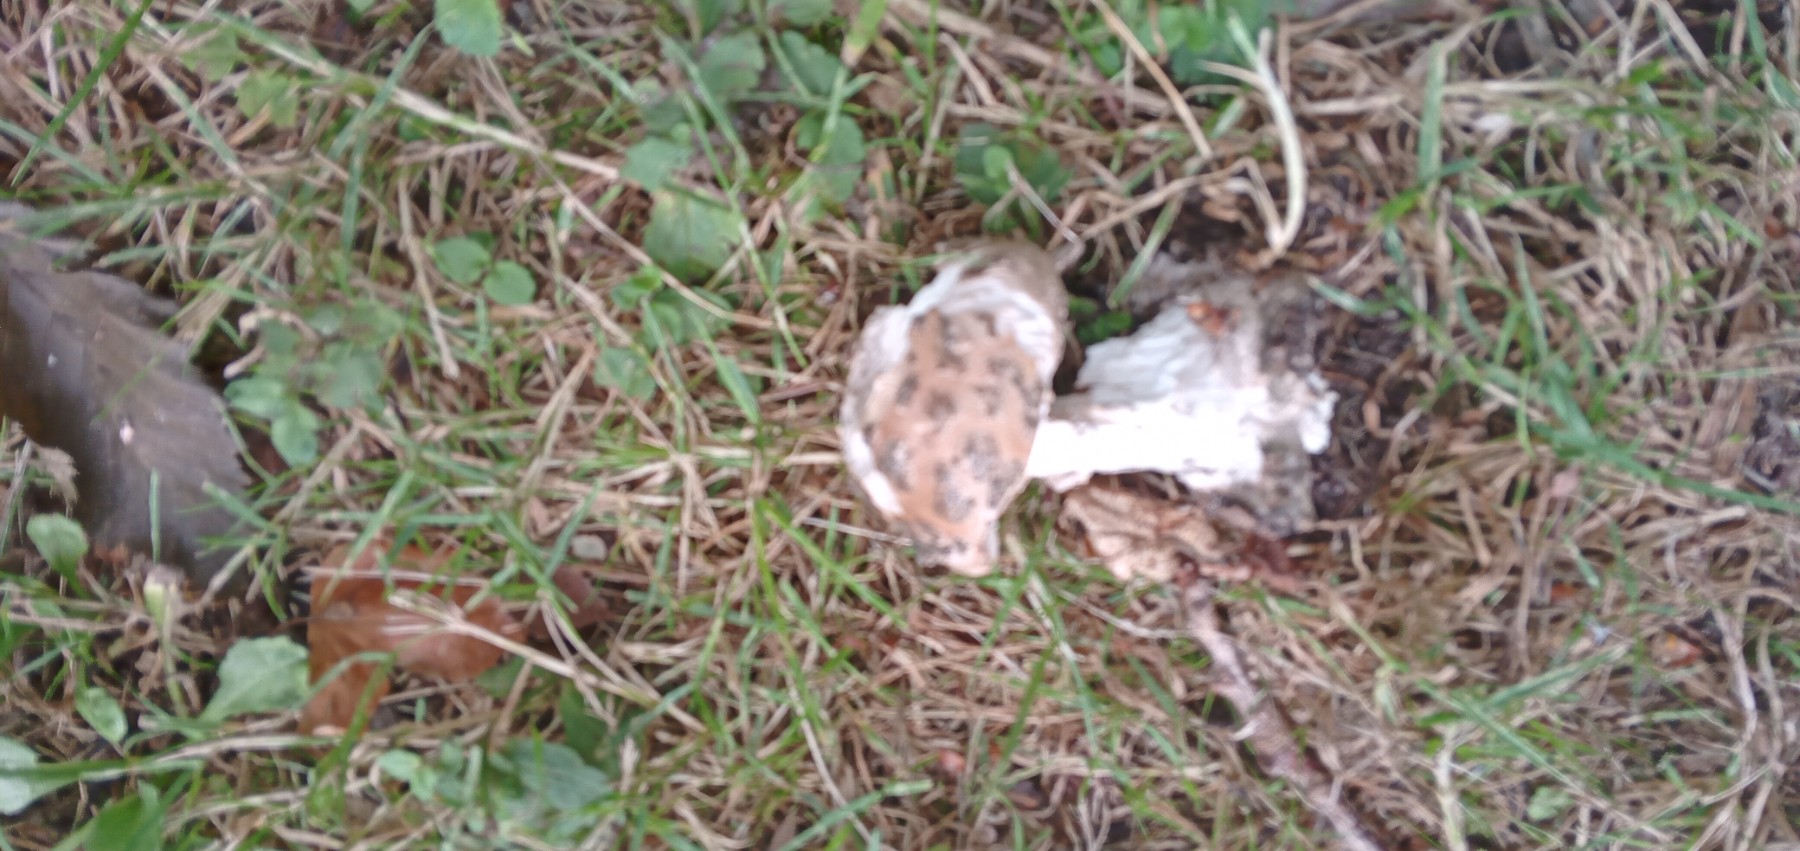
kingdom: Fungi
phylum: Basidiomycota
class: Agaricomycetes
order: Agaricales
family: Amanitaceae
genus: Amanita
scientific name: Amanita
